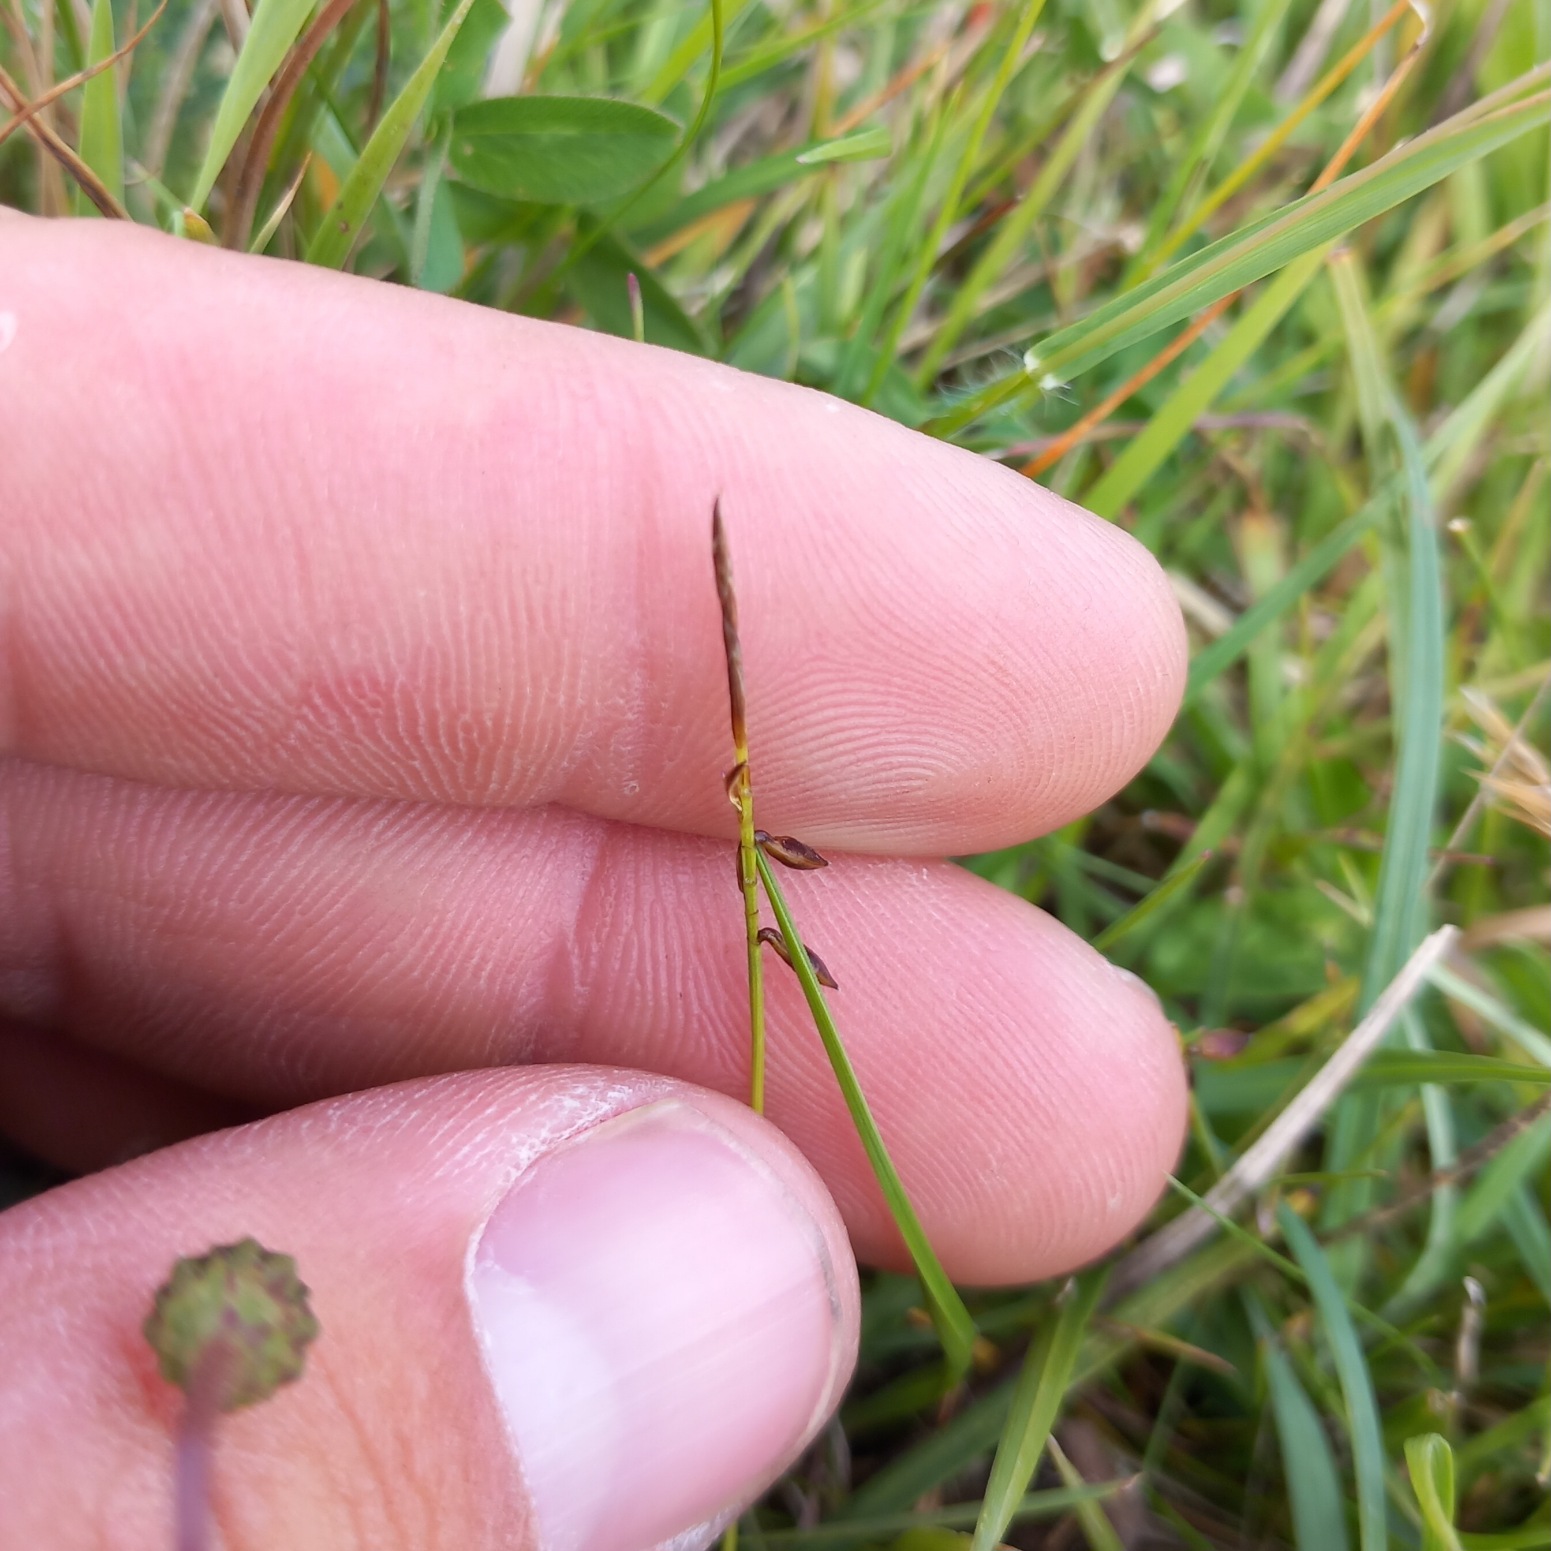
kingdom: Plantae
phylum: Tracheophyta
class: Liliopsida
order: Poales
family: Cyperaceae
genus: Carex
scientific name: Carex pulicaris
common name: Loppe-star
